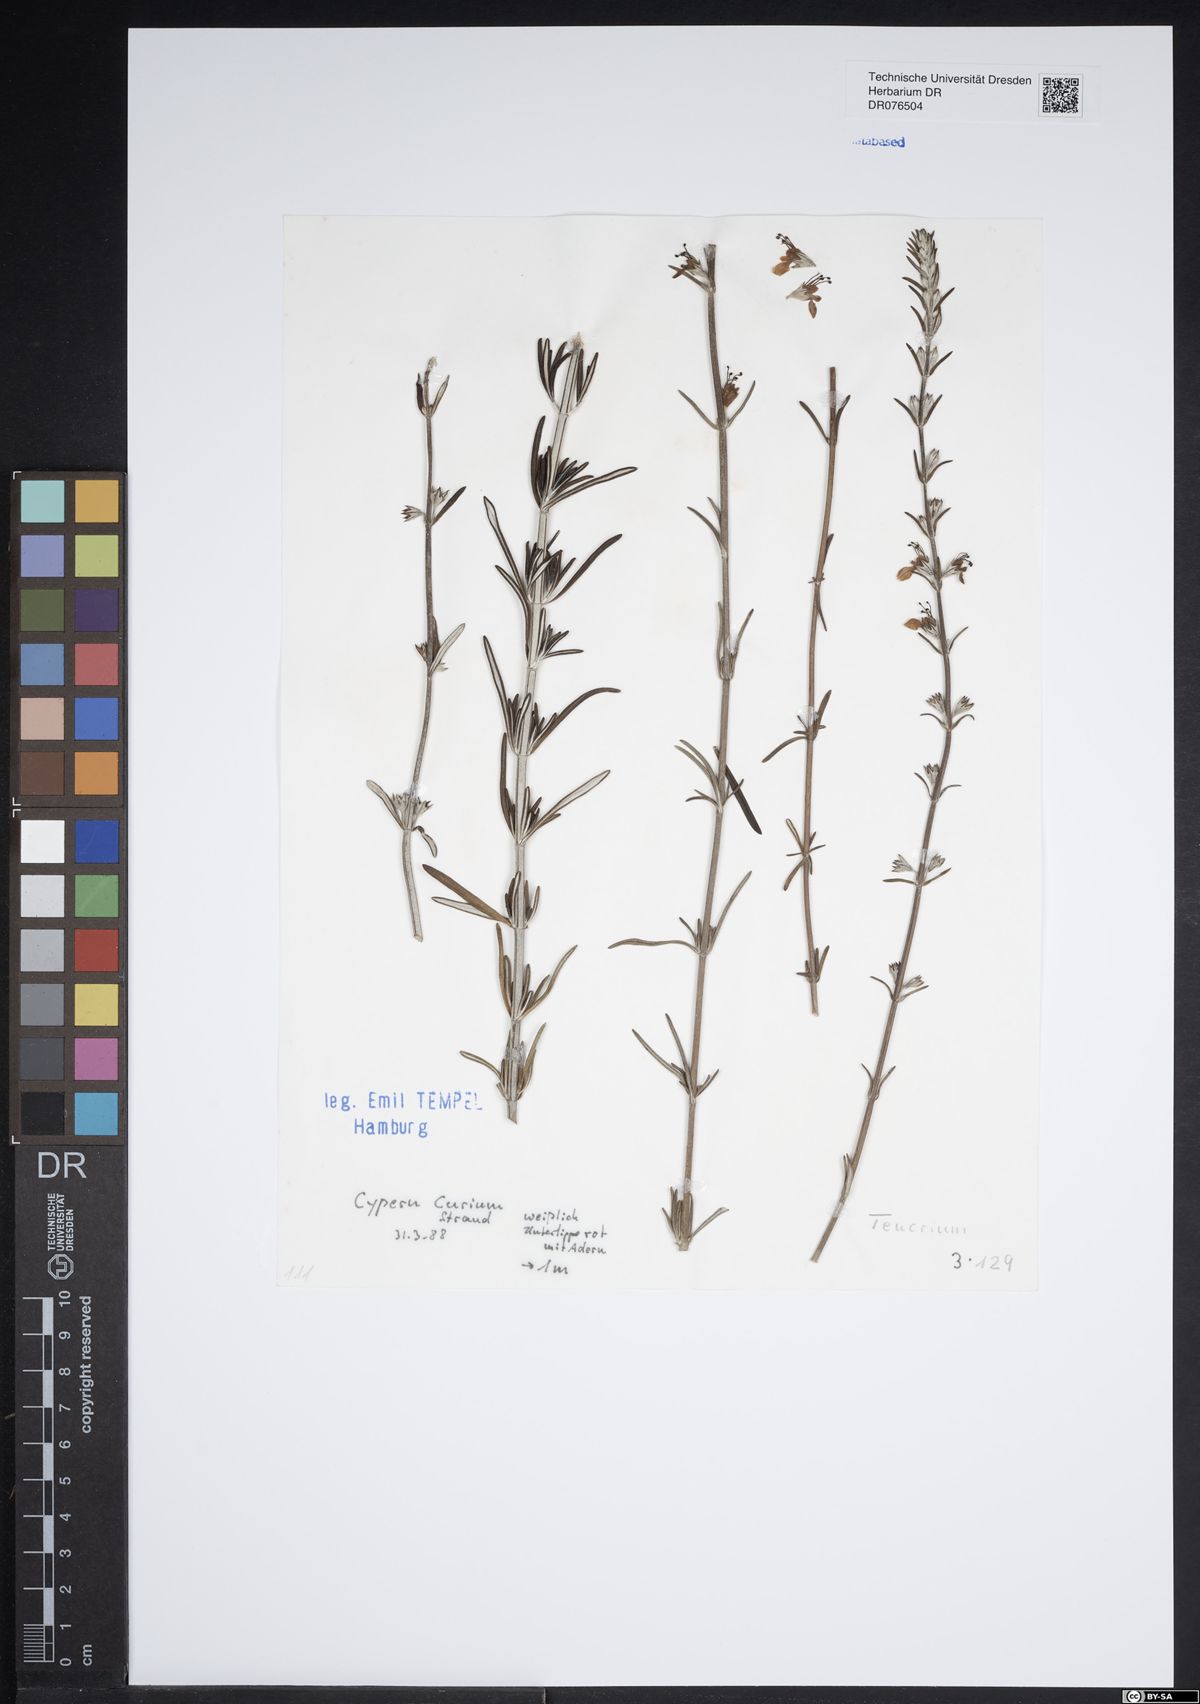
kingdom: Plantae
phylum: Tracheophyta
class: Magnoliopsida
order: Lamiales
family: Lamiaceae
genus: Teucrium
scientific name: Teucrium
